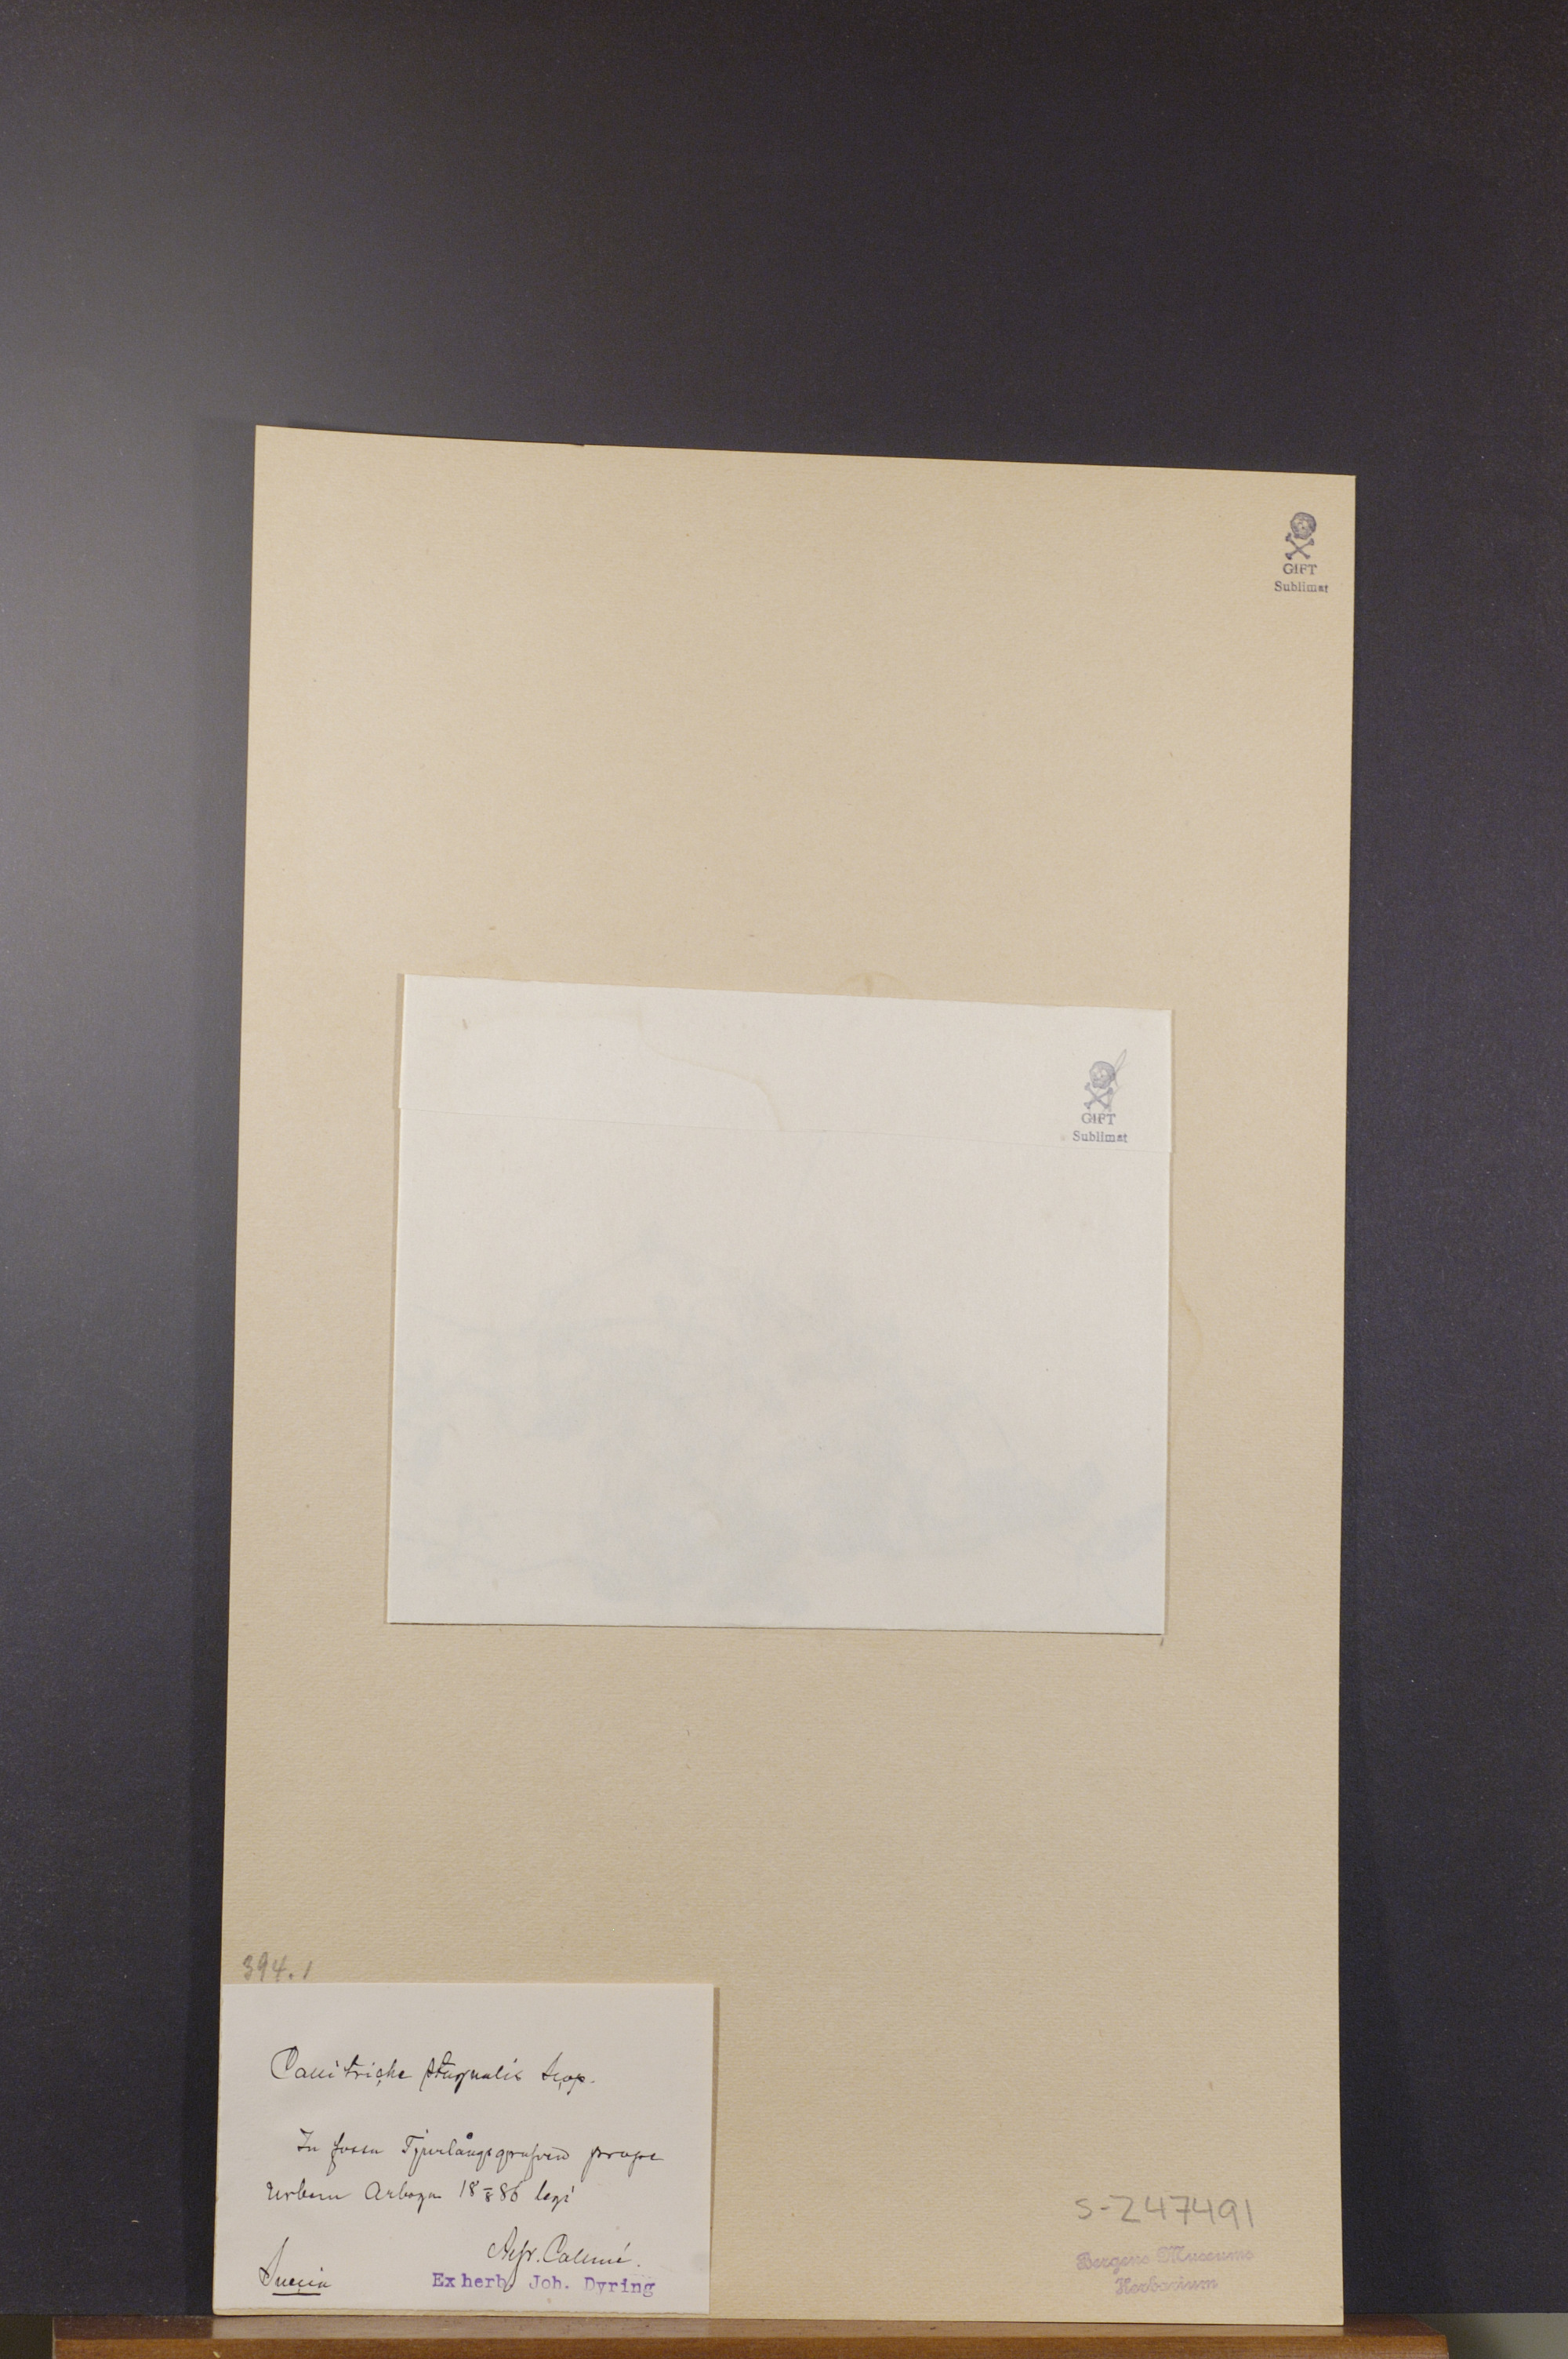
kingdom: Plantae
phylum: Tracheophyta
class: Magnoliopsida
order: Lamiales
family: Plantaginaceae
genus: Callitriche
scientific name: Callitriche stagnalis
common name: Common water-starwort
